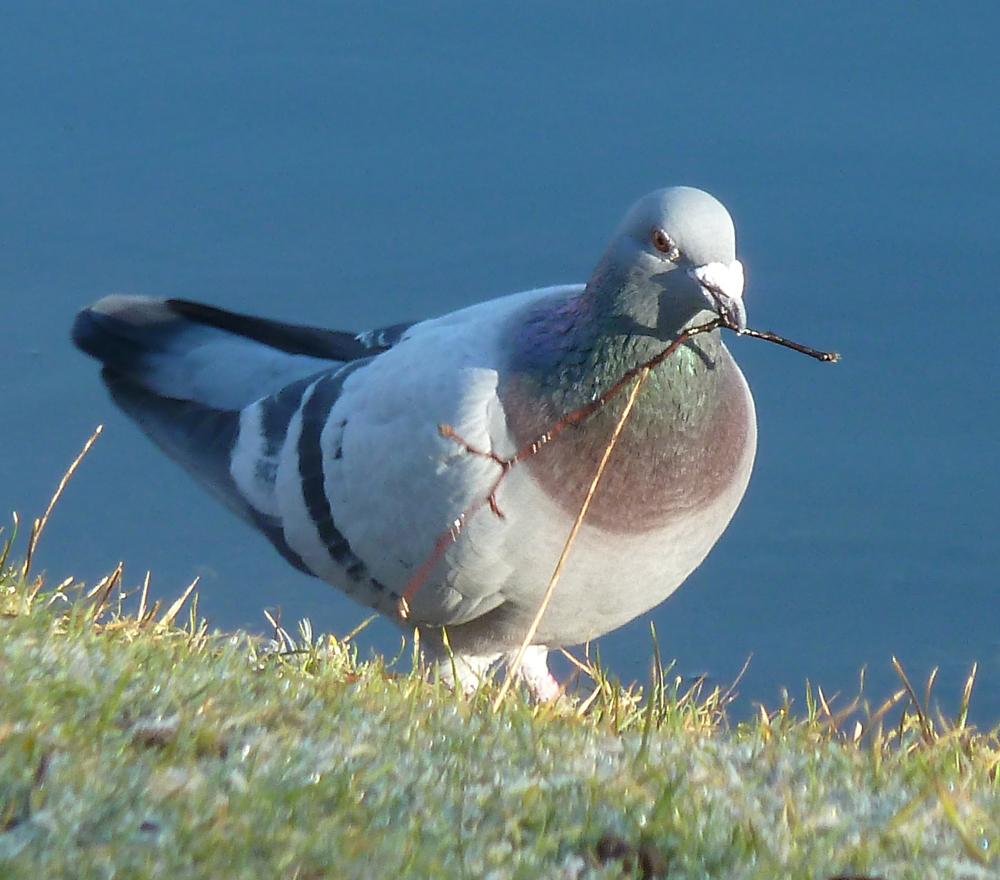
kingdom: Animalia
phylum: Chordata
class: Aves
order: Columbiformes
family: Columbidae
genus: Columba
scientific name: Columba livia
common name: Rock pigeon
